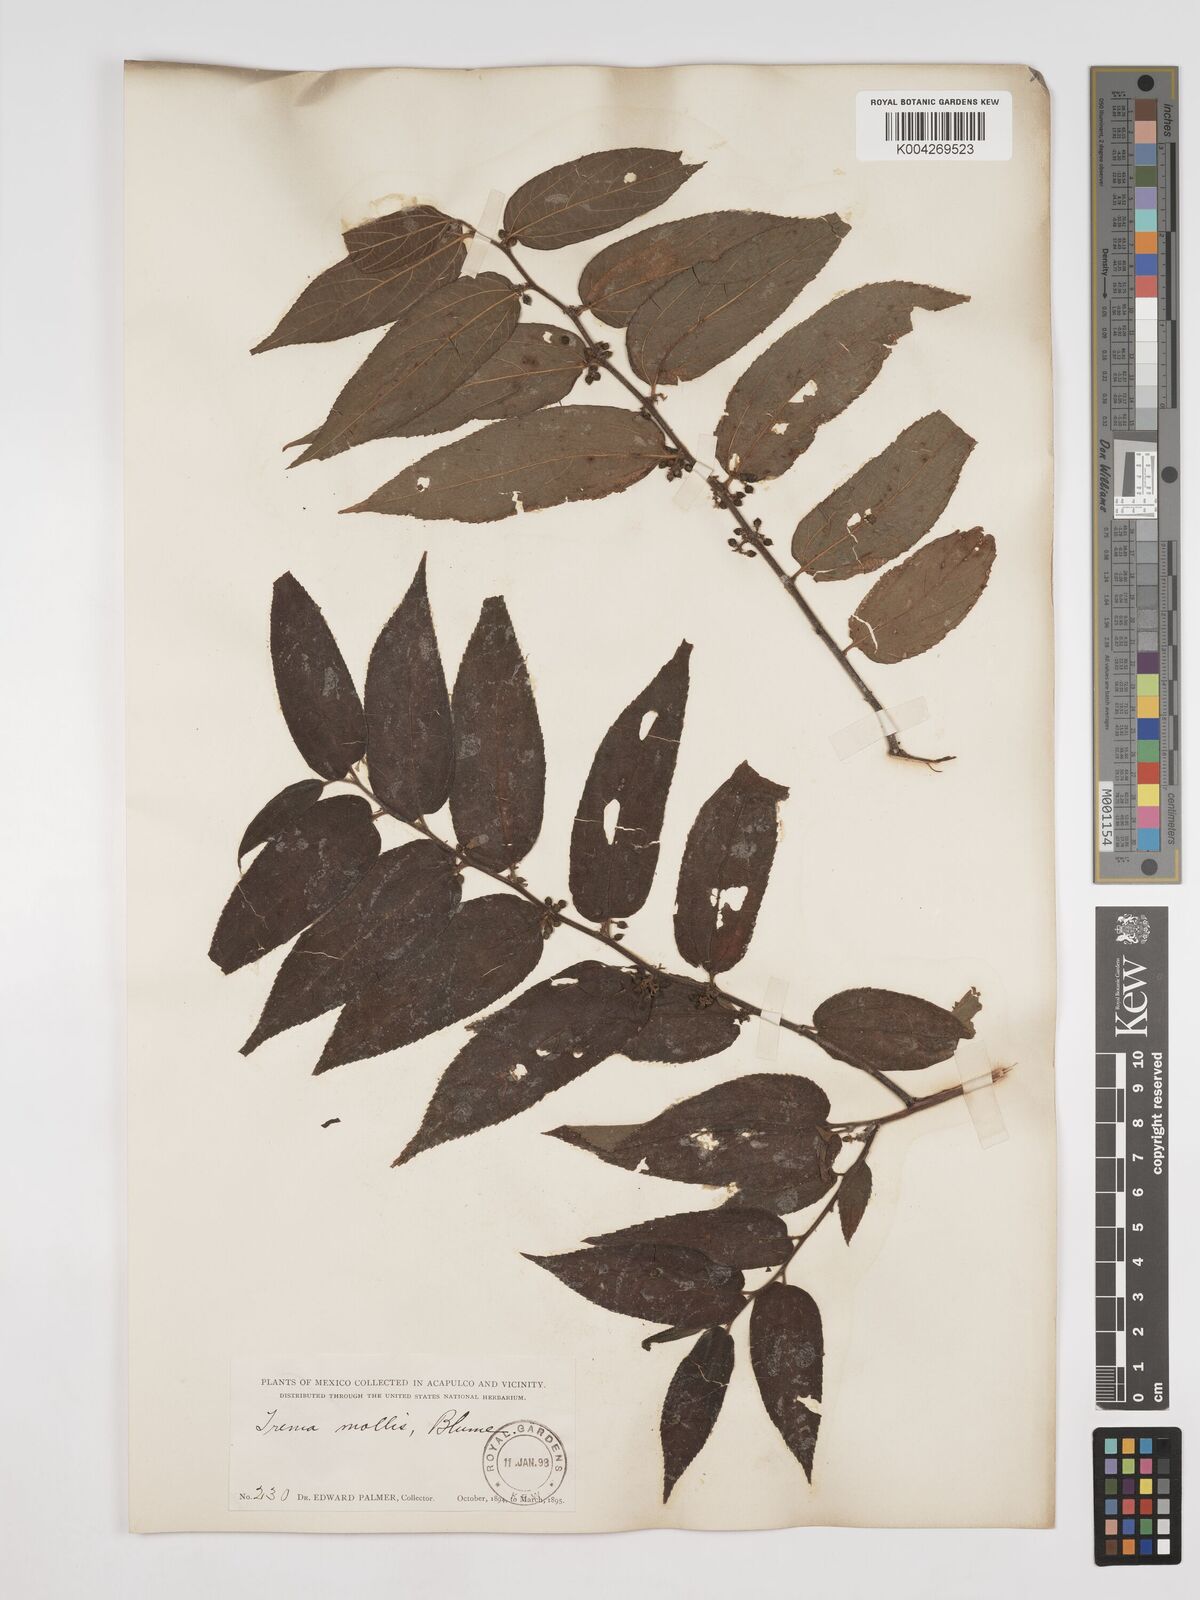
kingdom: Plantae
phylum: Tracheophyta
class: Magnoliopsida
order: Rosales
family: Cannabaceae
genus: Trema
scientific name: Trema micranthum
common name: Jamaican nettletree
